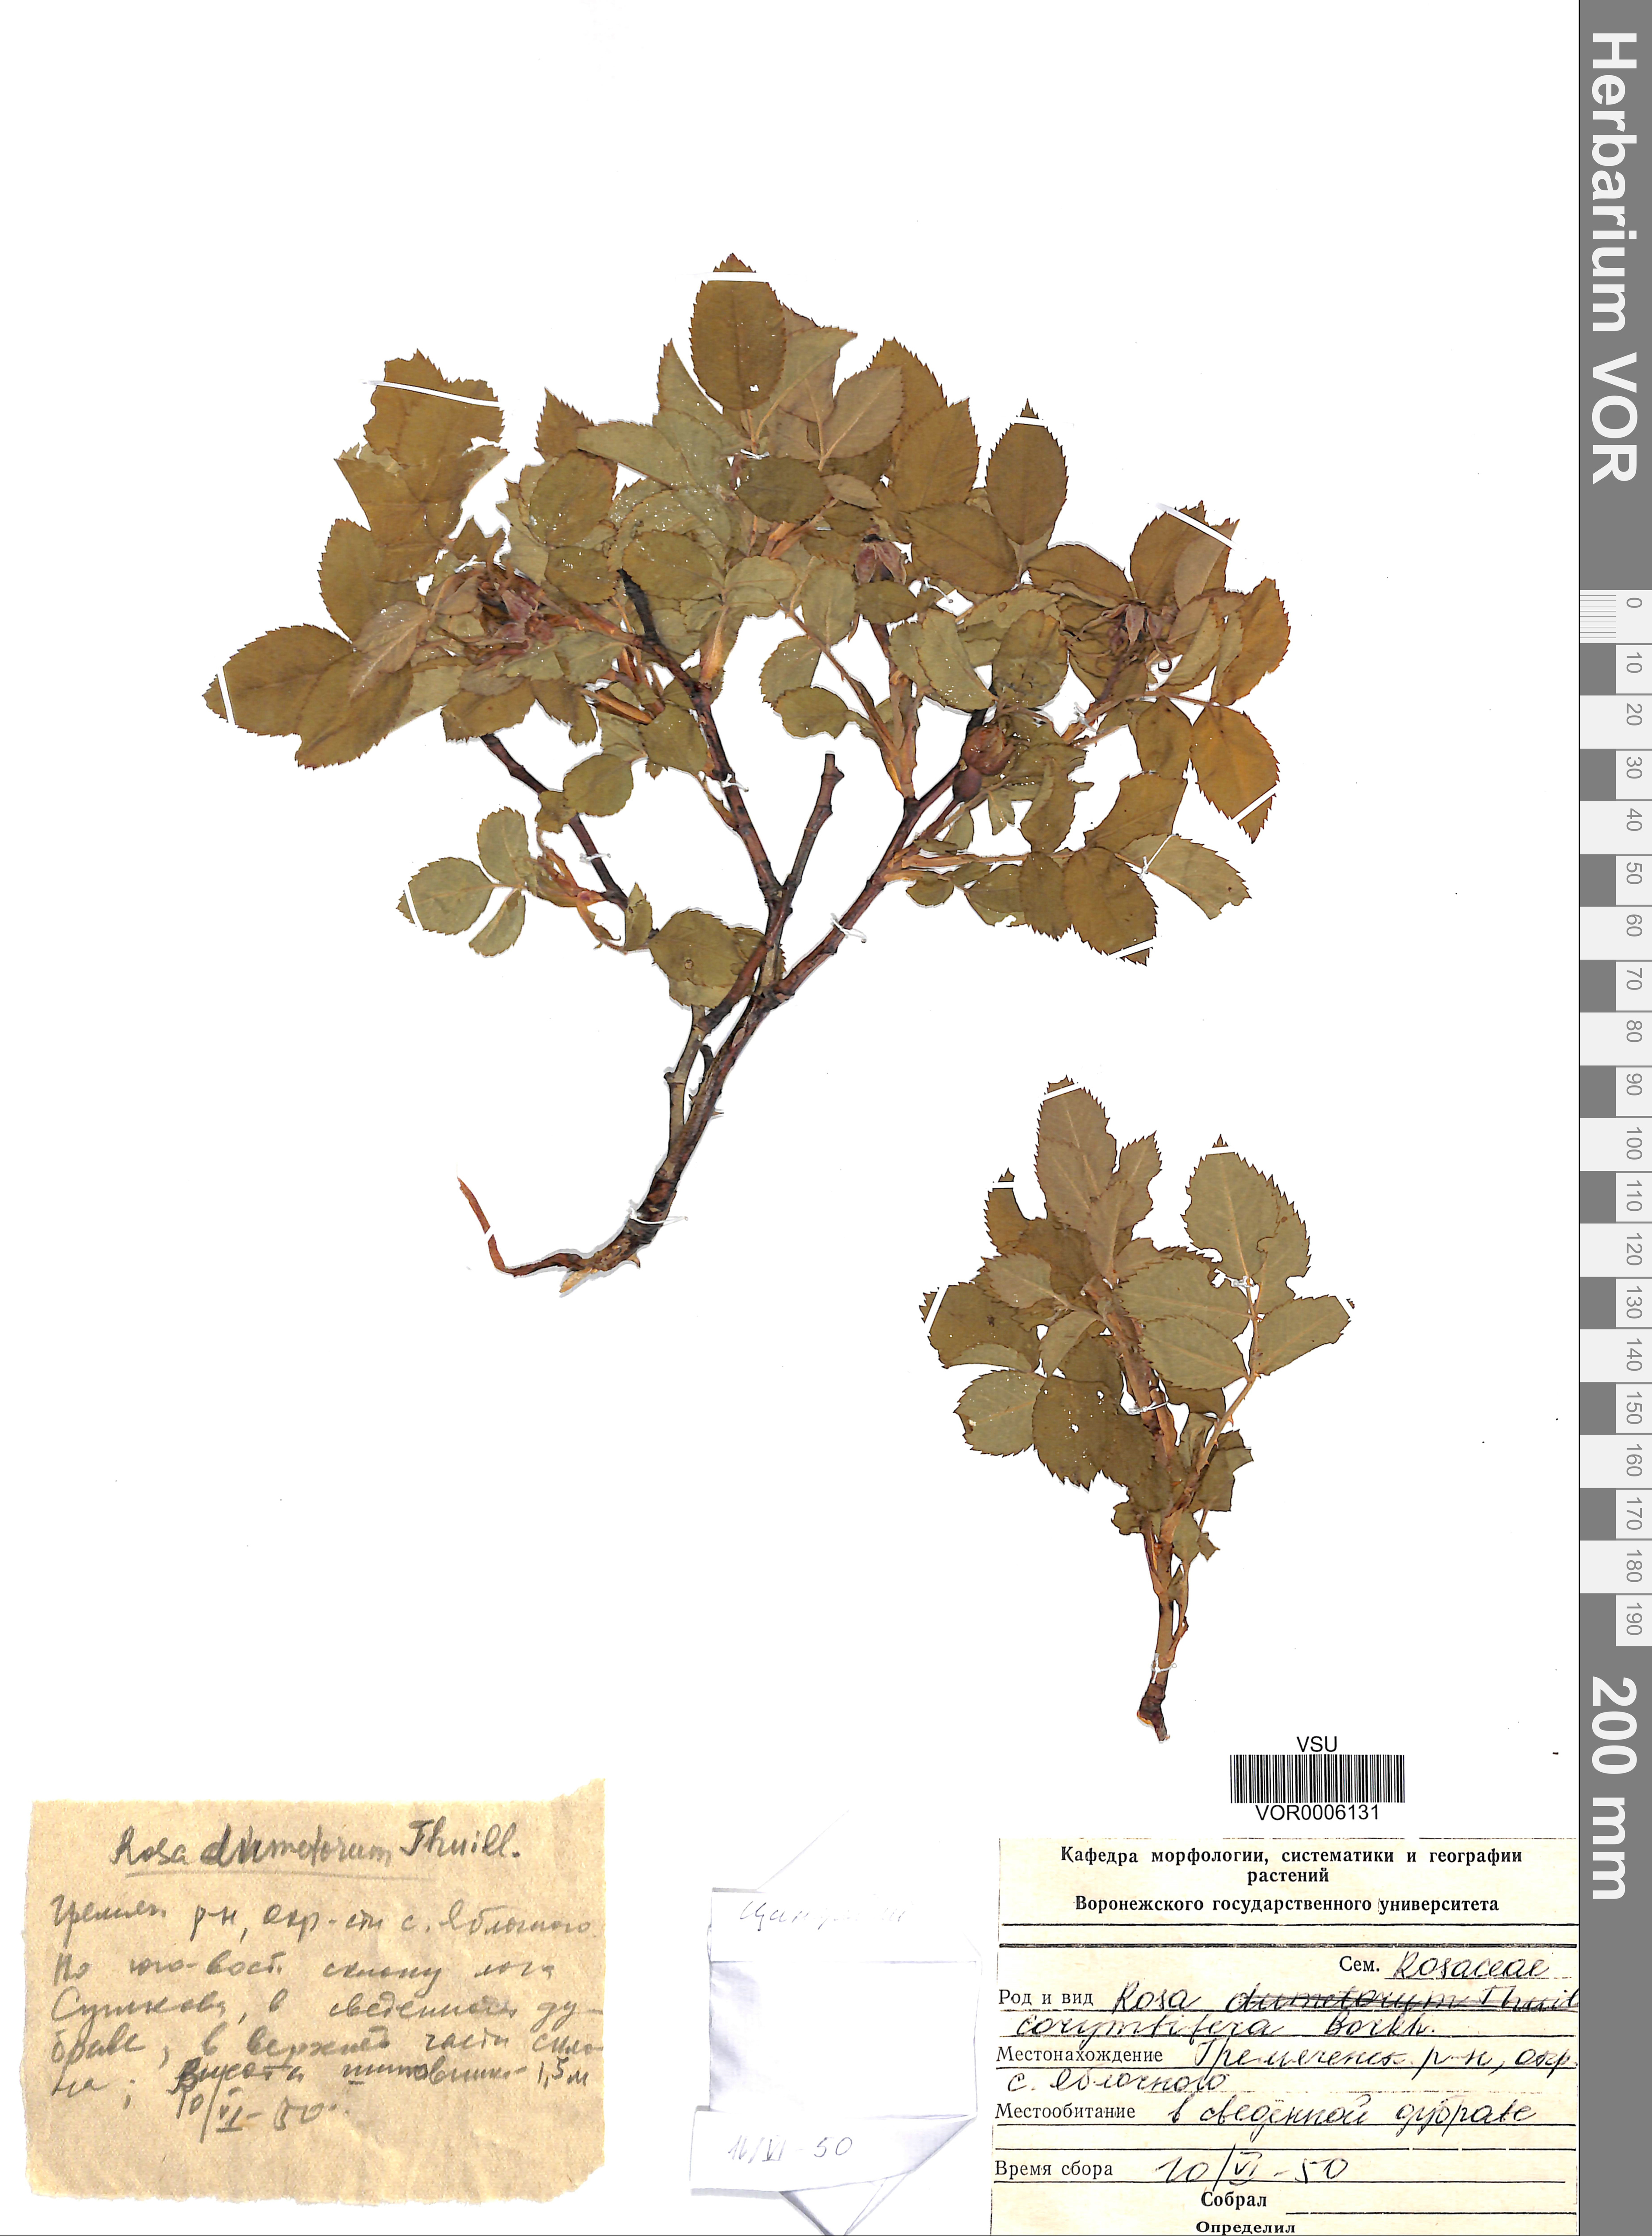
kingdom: Plantae
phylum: Tracheophyta
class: Magnoliopsida
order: Rosales
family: Rosaceae
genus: Rosa
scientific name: Rosa corymbifera
